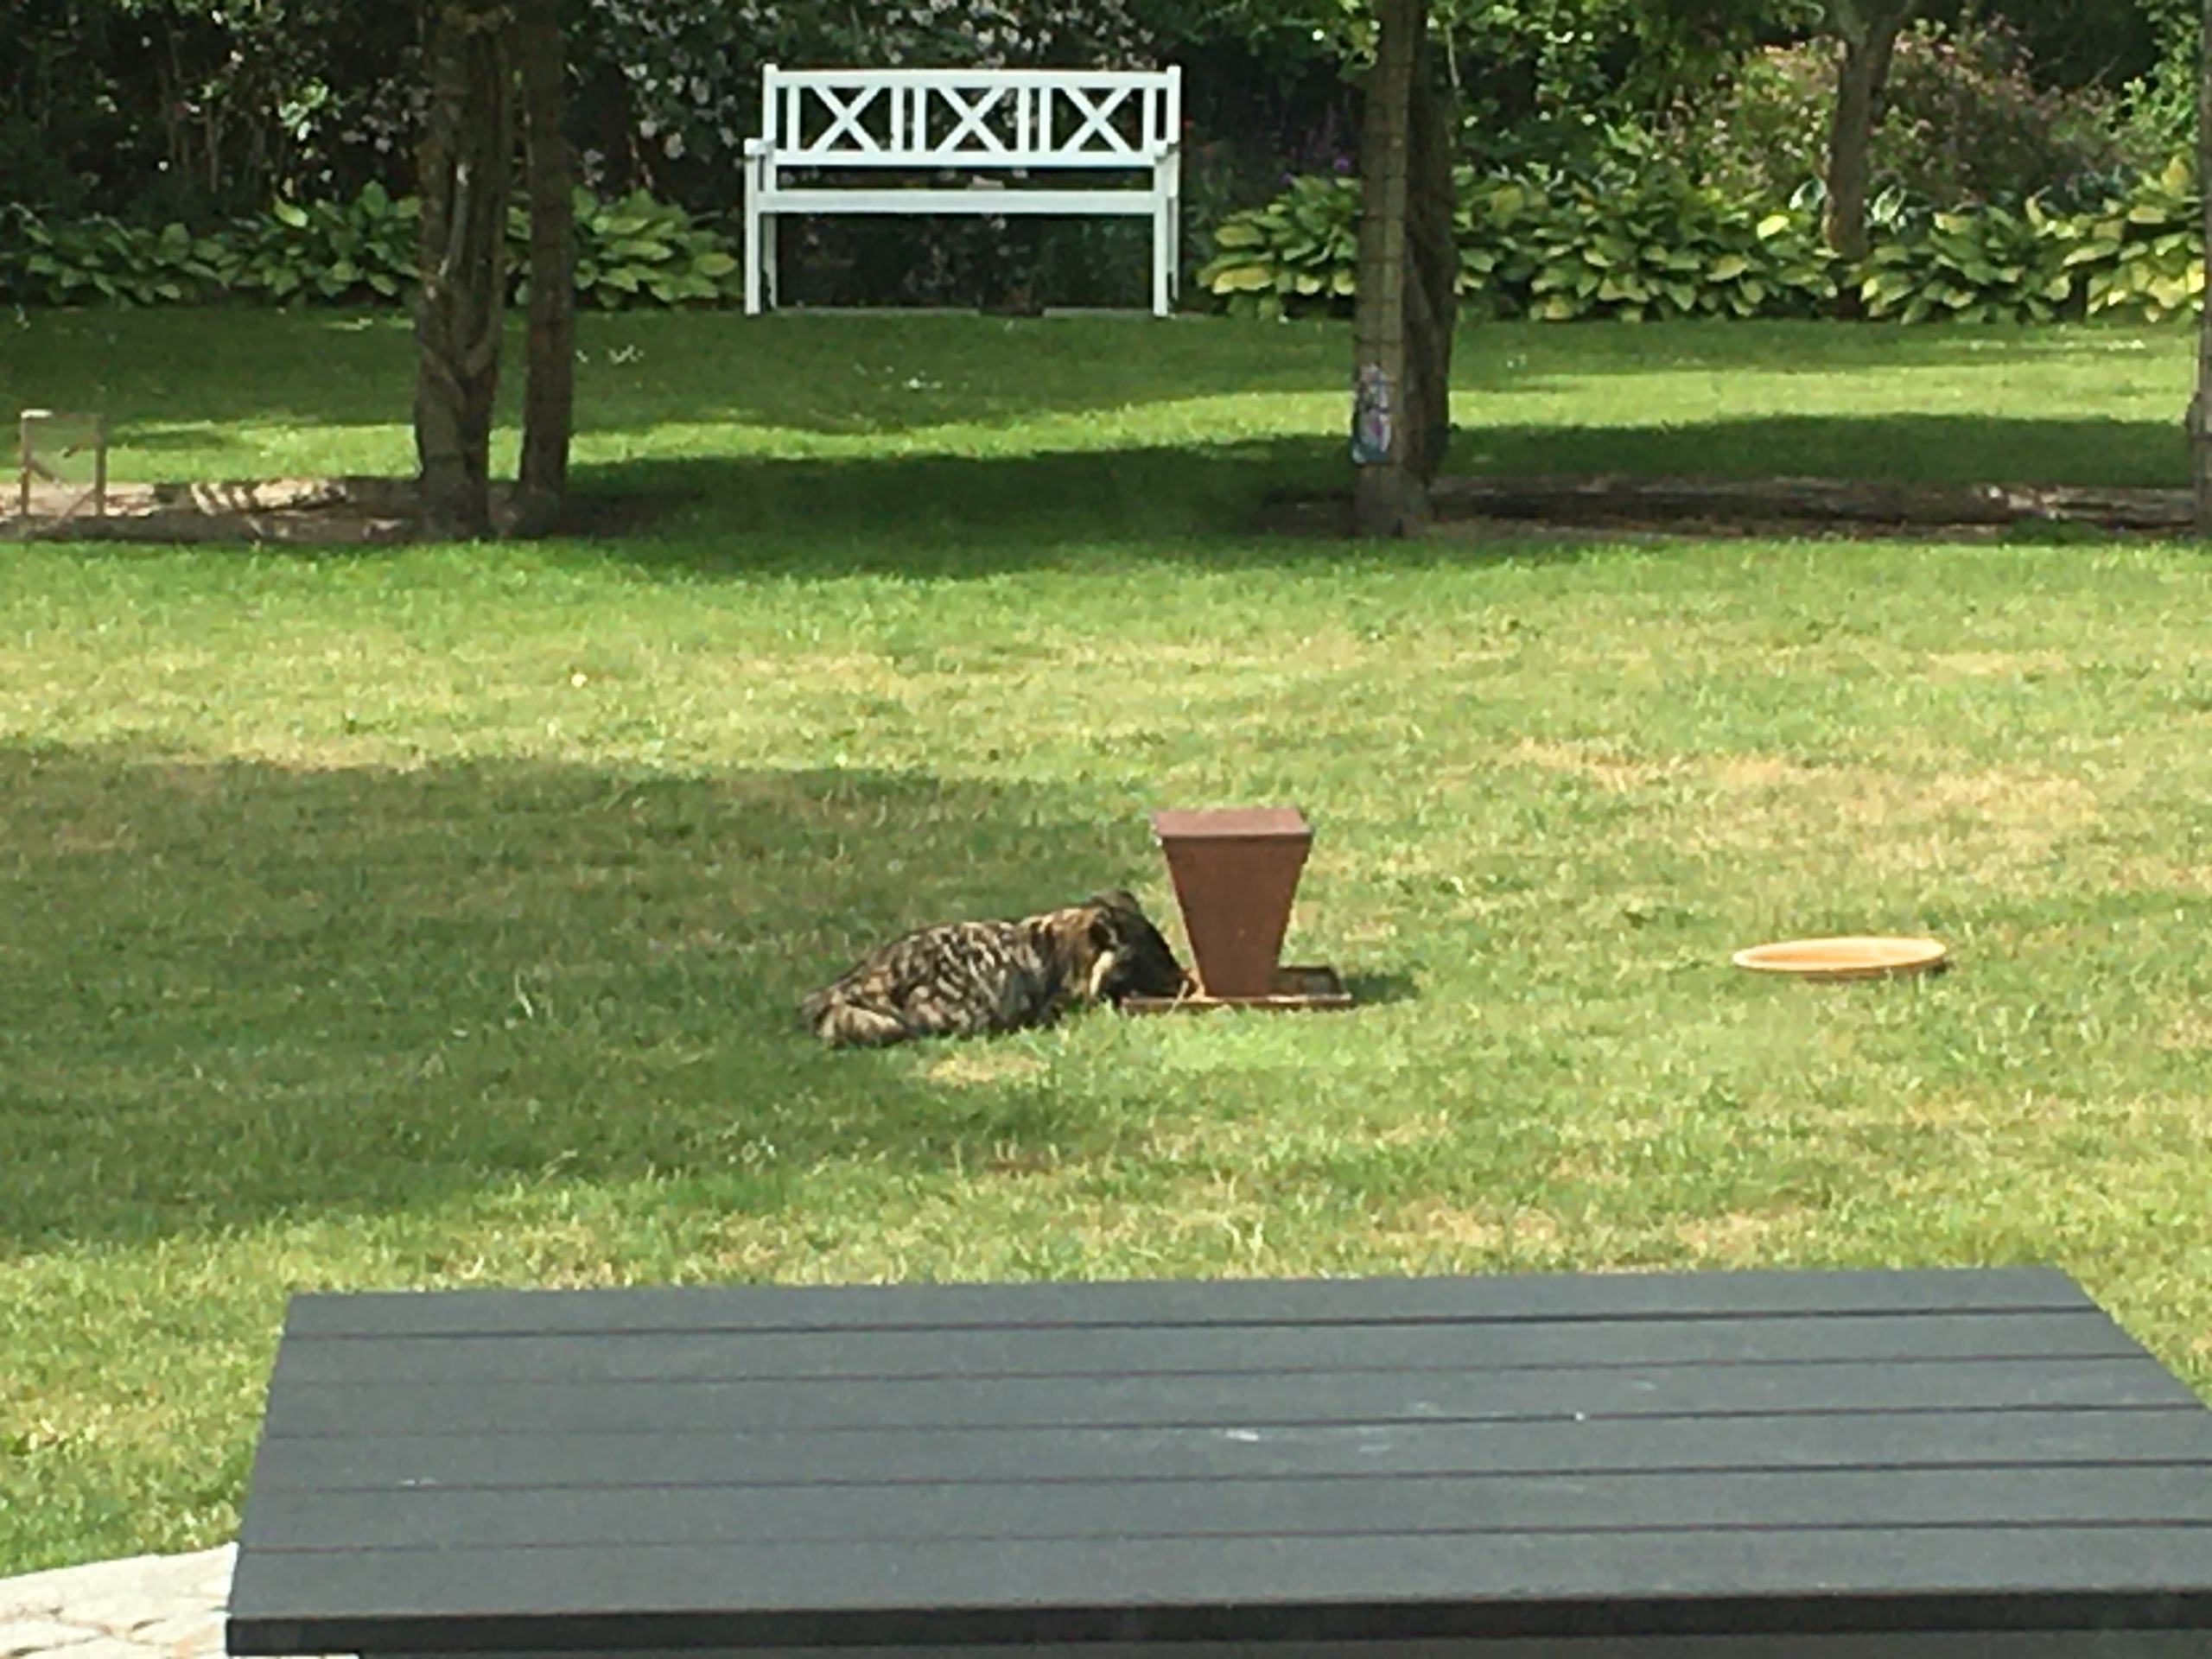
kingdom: Animalia
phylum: Chordata
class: Mammalia
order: Carnivora
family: Canidae
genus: Nyctereutes
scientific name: Nyctereutes procyonoides
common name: Mårhund
